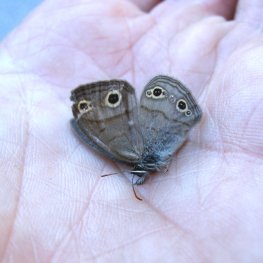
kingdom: Animalia
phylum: Arthropoda
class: Insecta
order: Lepidoptera
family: Nymphalidae
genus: Euptychia
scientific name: Euptychia cymela
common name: Little Wood Satyr
